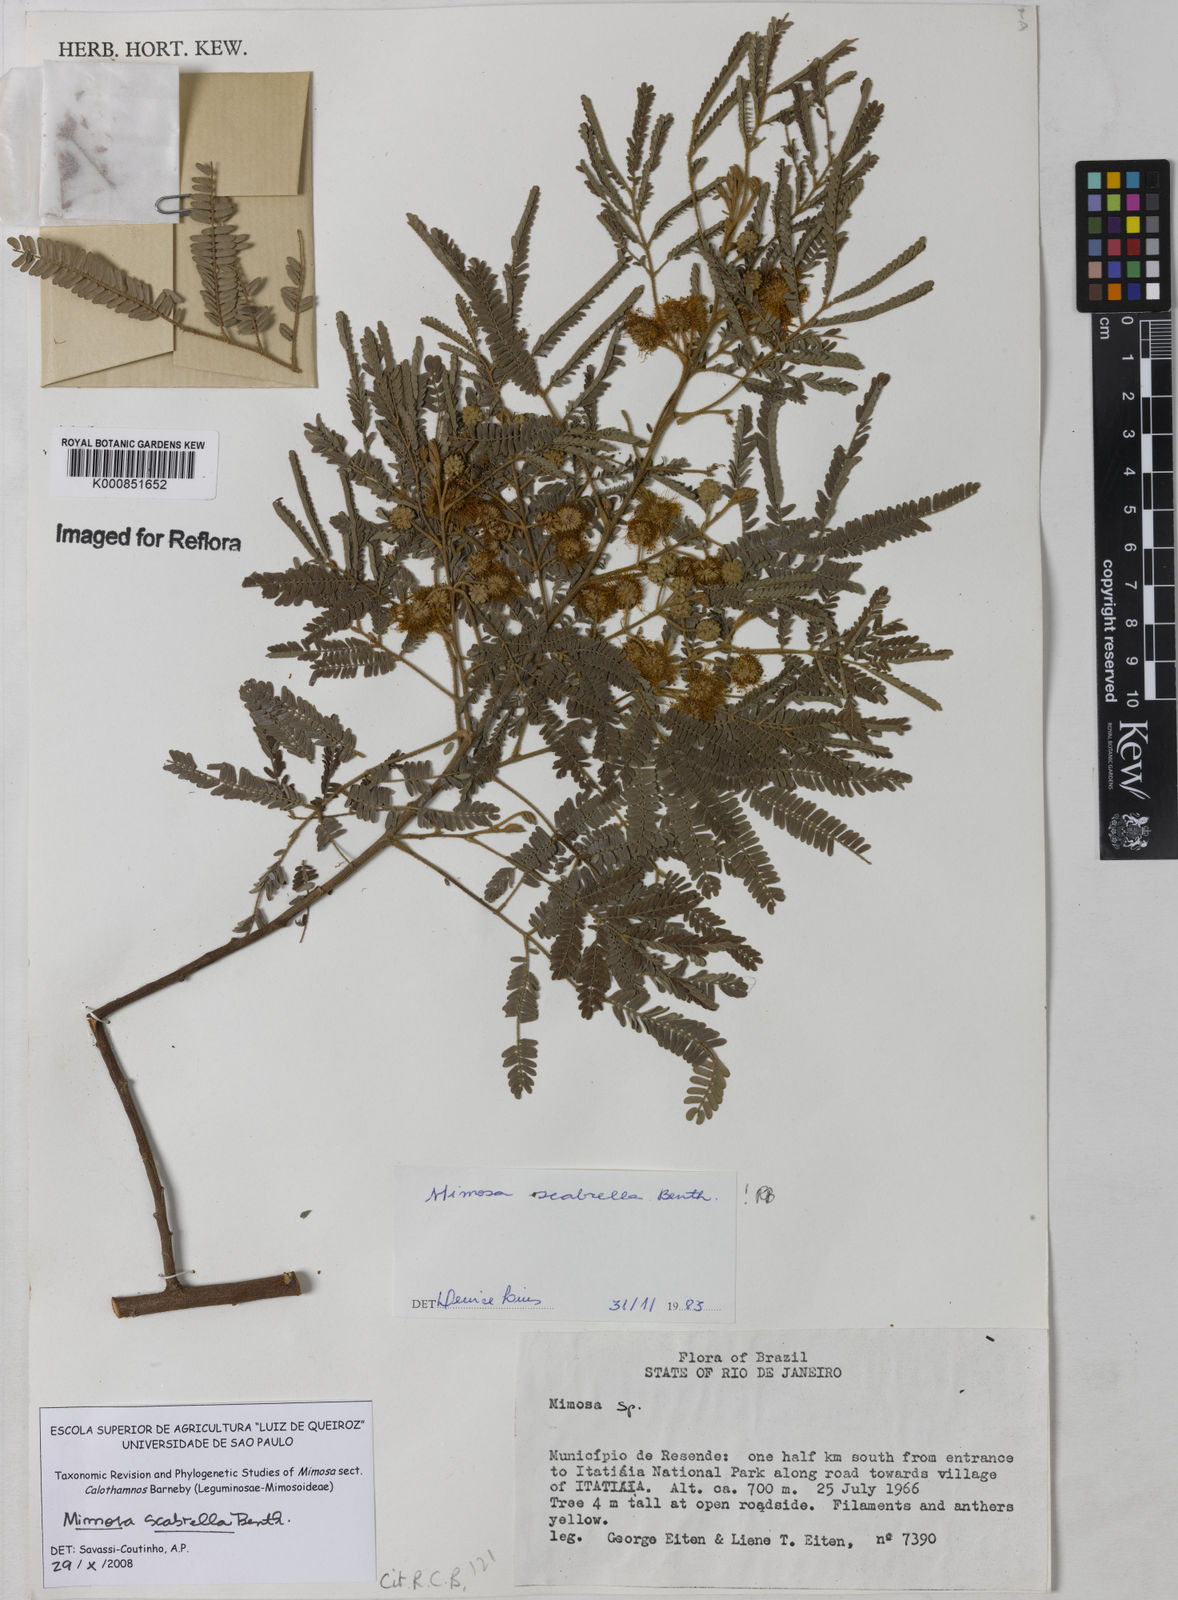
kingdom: Plantae
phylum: Tracheophyta
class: Magnoliopsida
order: Fabales
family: Fabaceae
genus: Mimosa
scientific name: Mimosa scabrella
